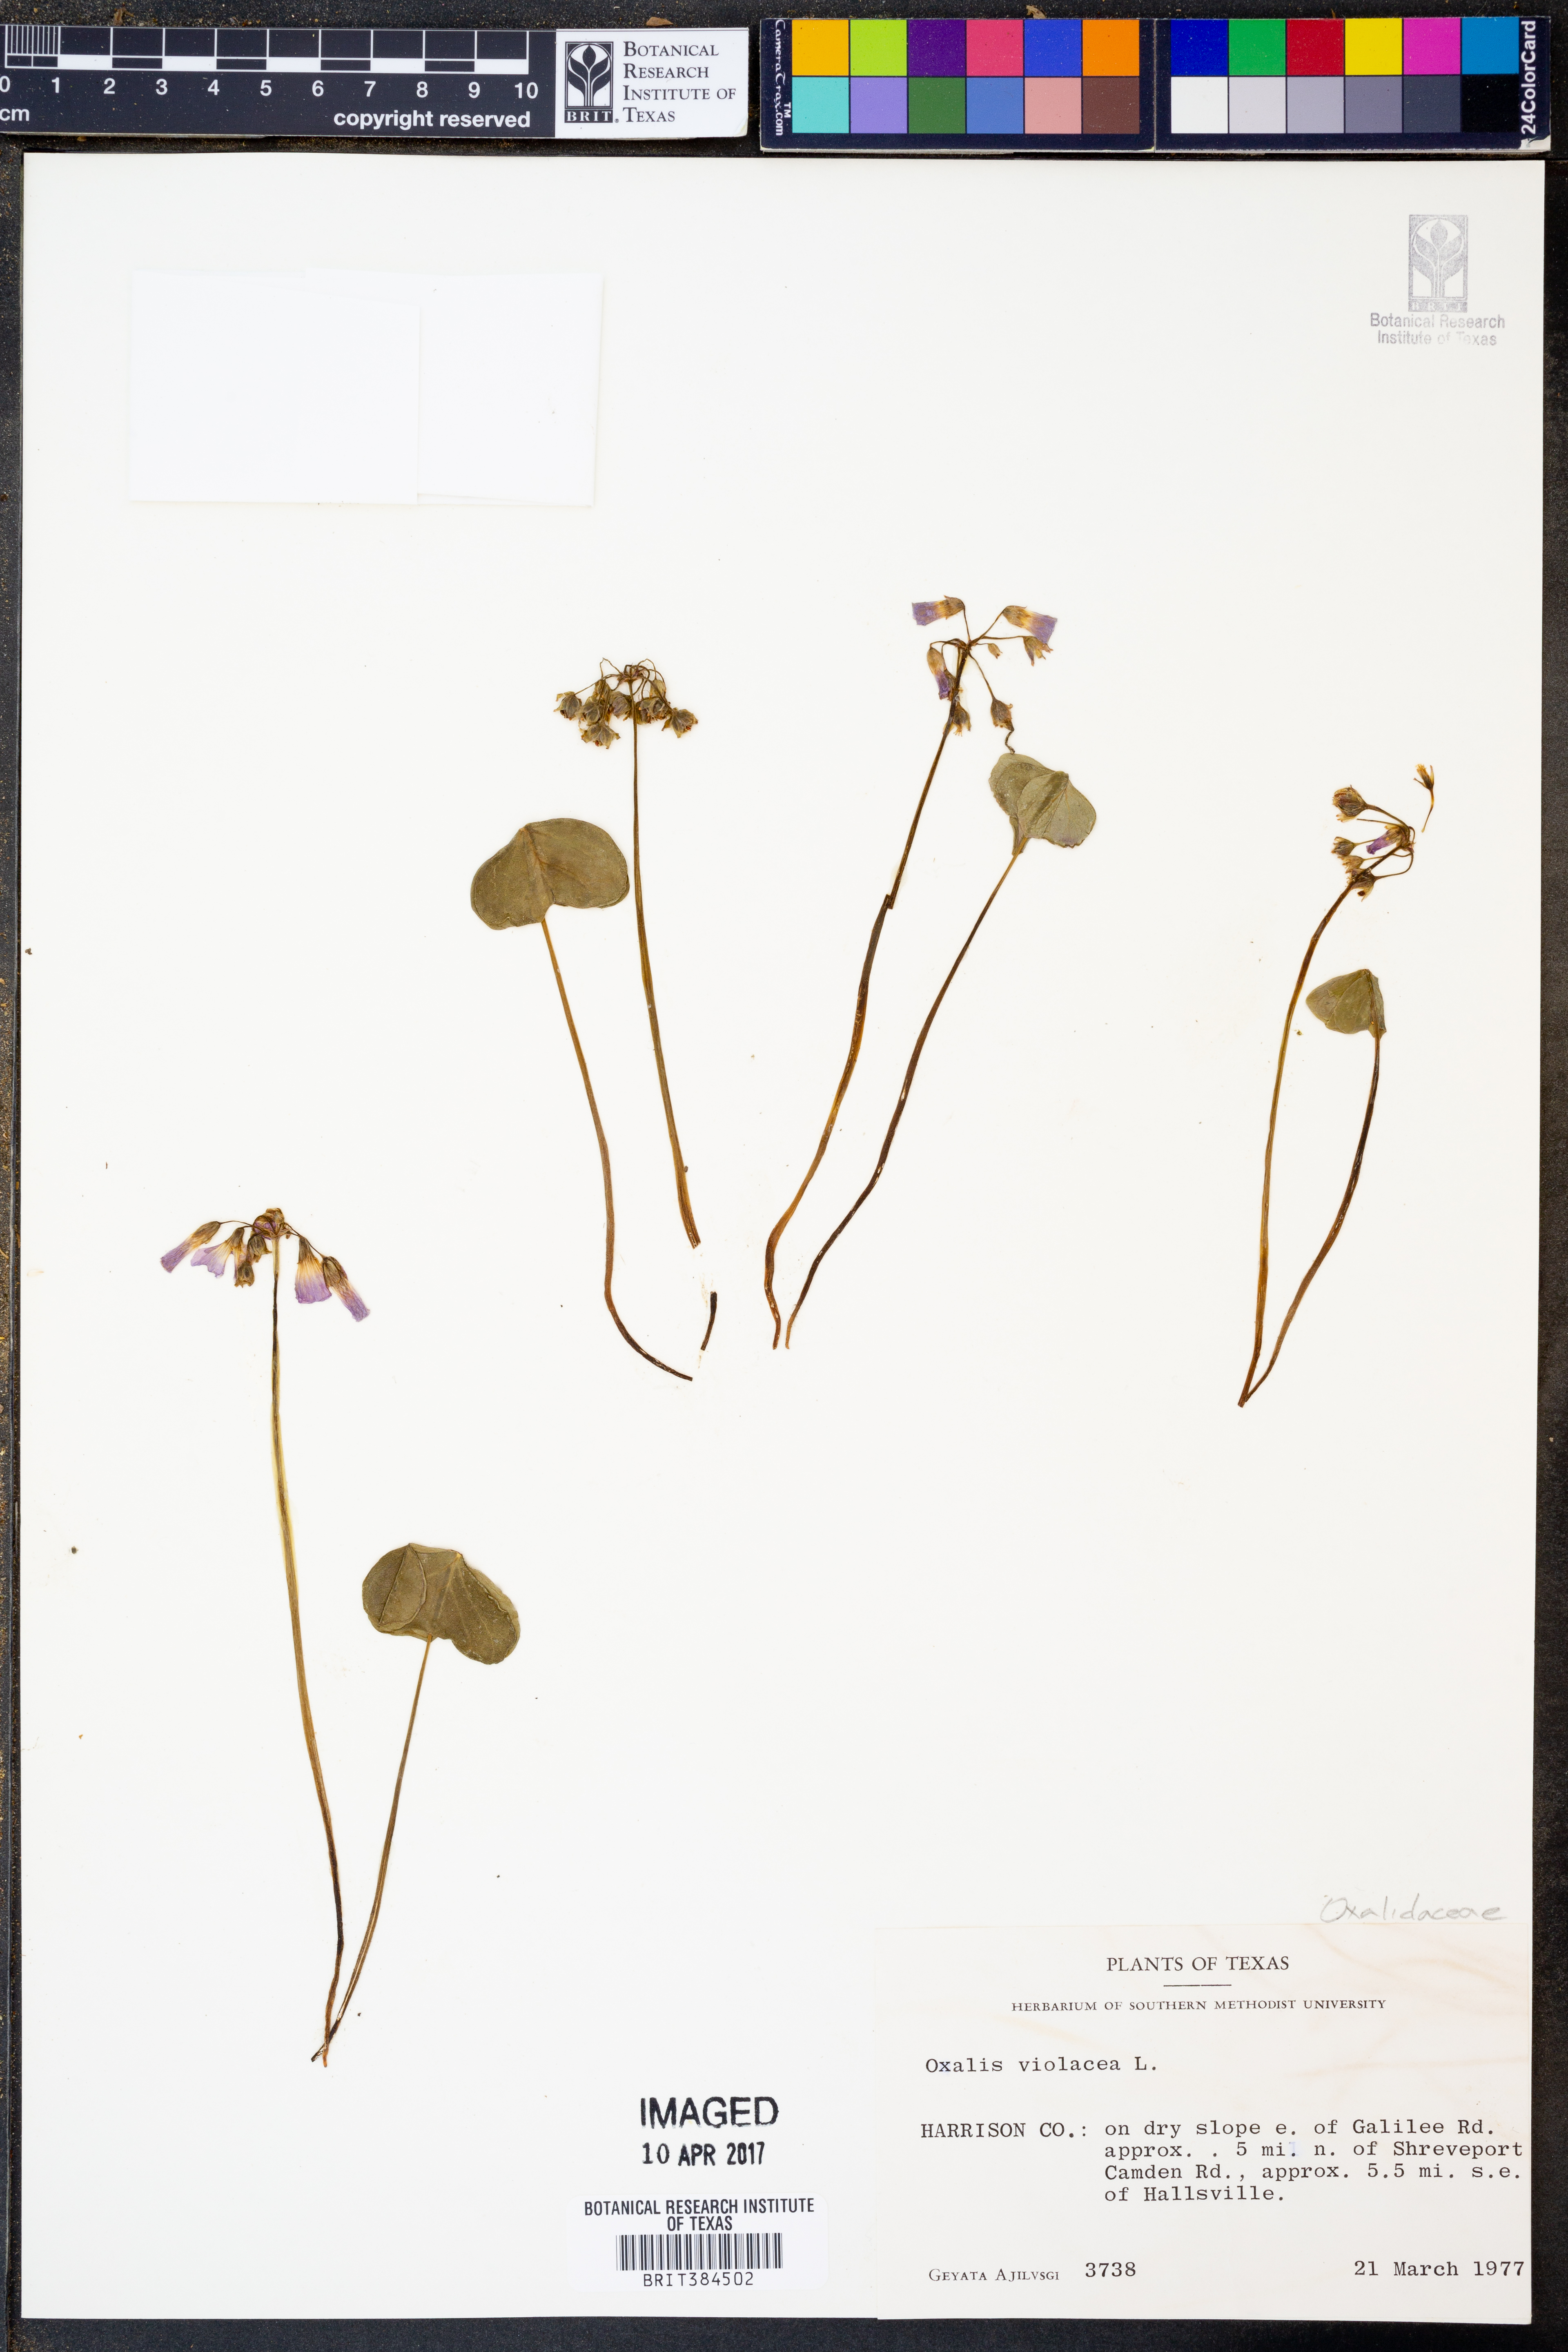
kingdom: Plantae
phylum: Tracheophyta
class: Magnoliopsida
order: Oxalidales
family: Oxalidaceae
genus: Oxalis
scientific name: Oxalis violacea
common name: Violet wood-sorrel
